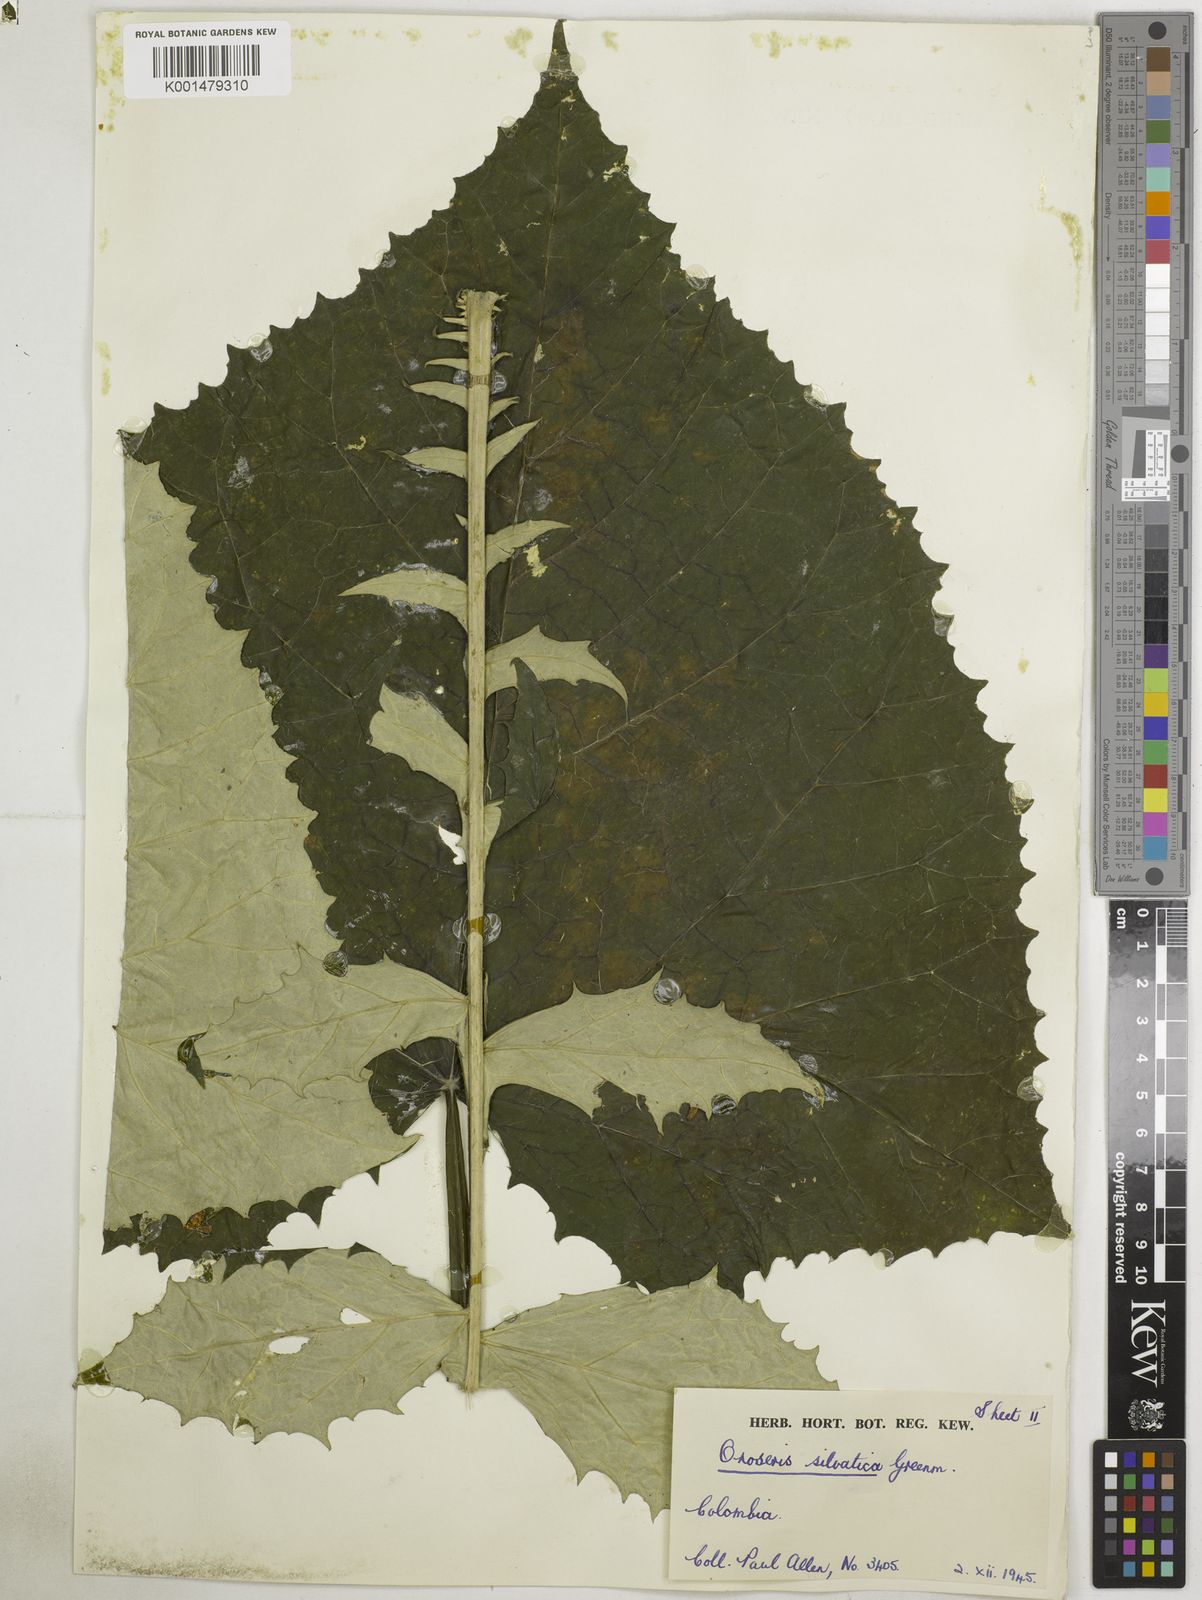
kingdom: Plantae
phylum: Tracheophyta
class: Magnoliopsida
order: Asterales
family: Asteraceae
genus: Onoseris
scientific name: Onoseris silvatica
